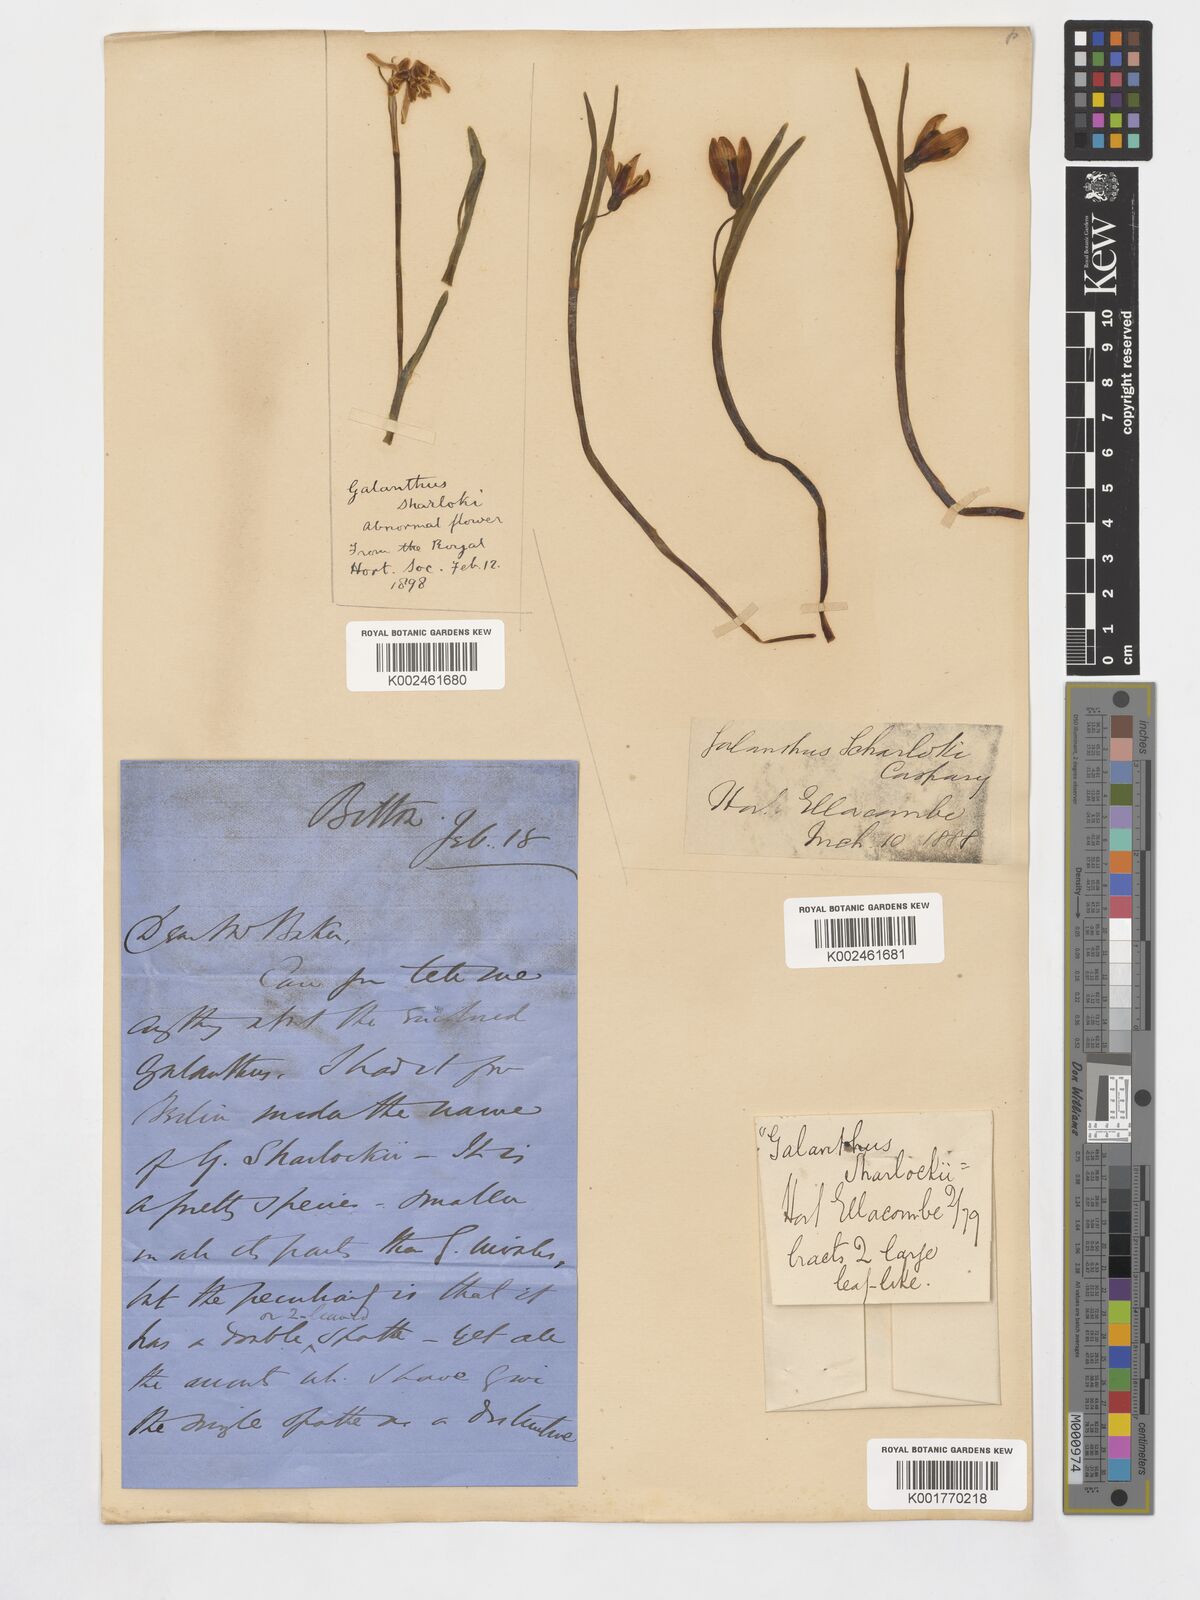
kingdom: Plantae
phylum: Tracheophyta
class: Liliopsida
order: Asparagales
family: Amaryllidaceae
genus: Galanthus
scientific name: Galanthus nivalis
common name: Snowdrop
